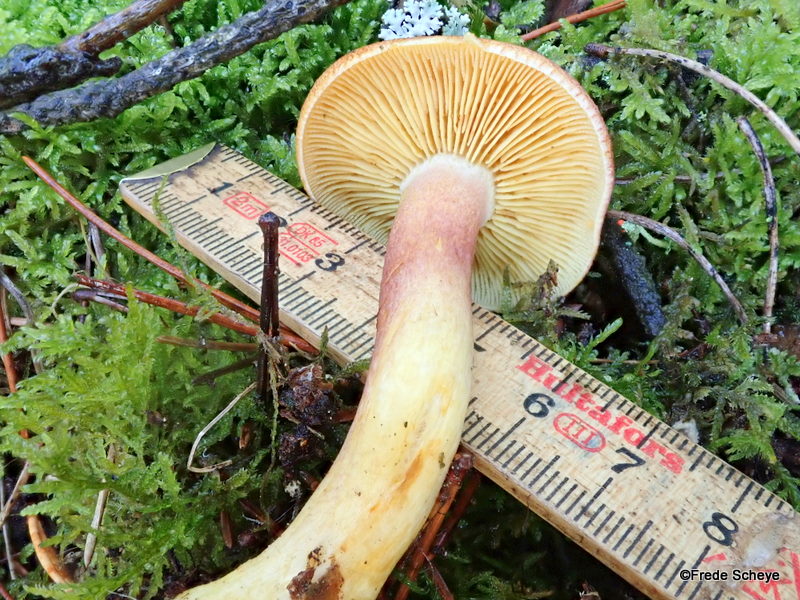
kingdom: Fungi
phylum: Basidiomycota
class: Agaricomycetes
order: Agaricales
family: Tricholomataceae
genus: Tricholomopsis
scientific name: Tricholomopsis rutilans
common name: purpur-væbnerhat
